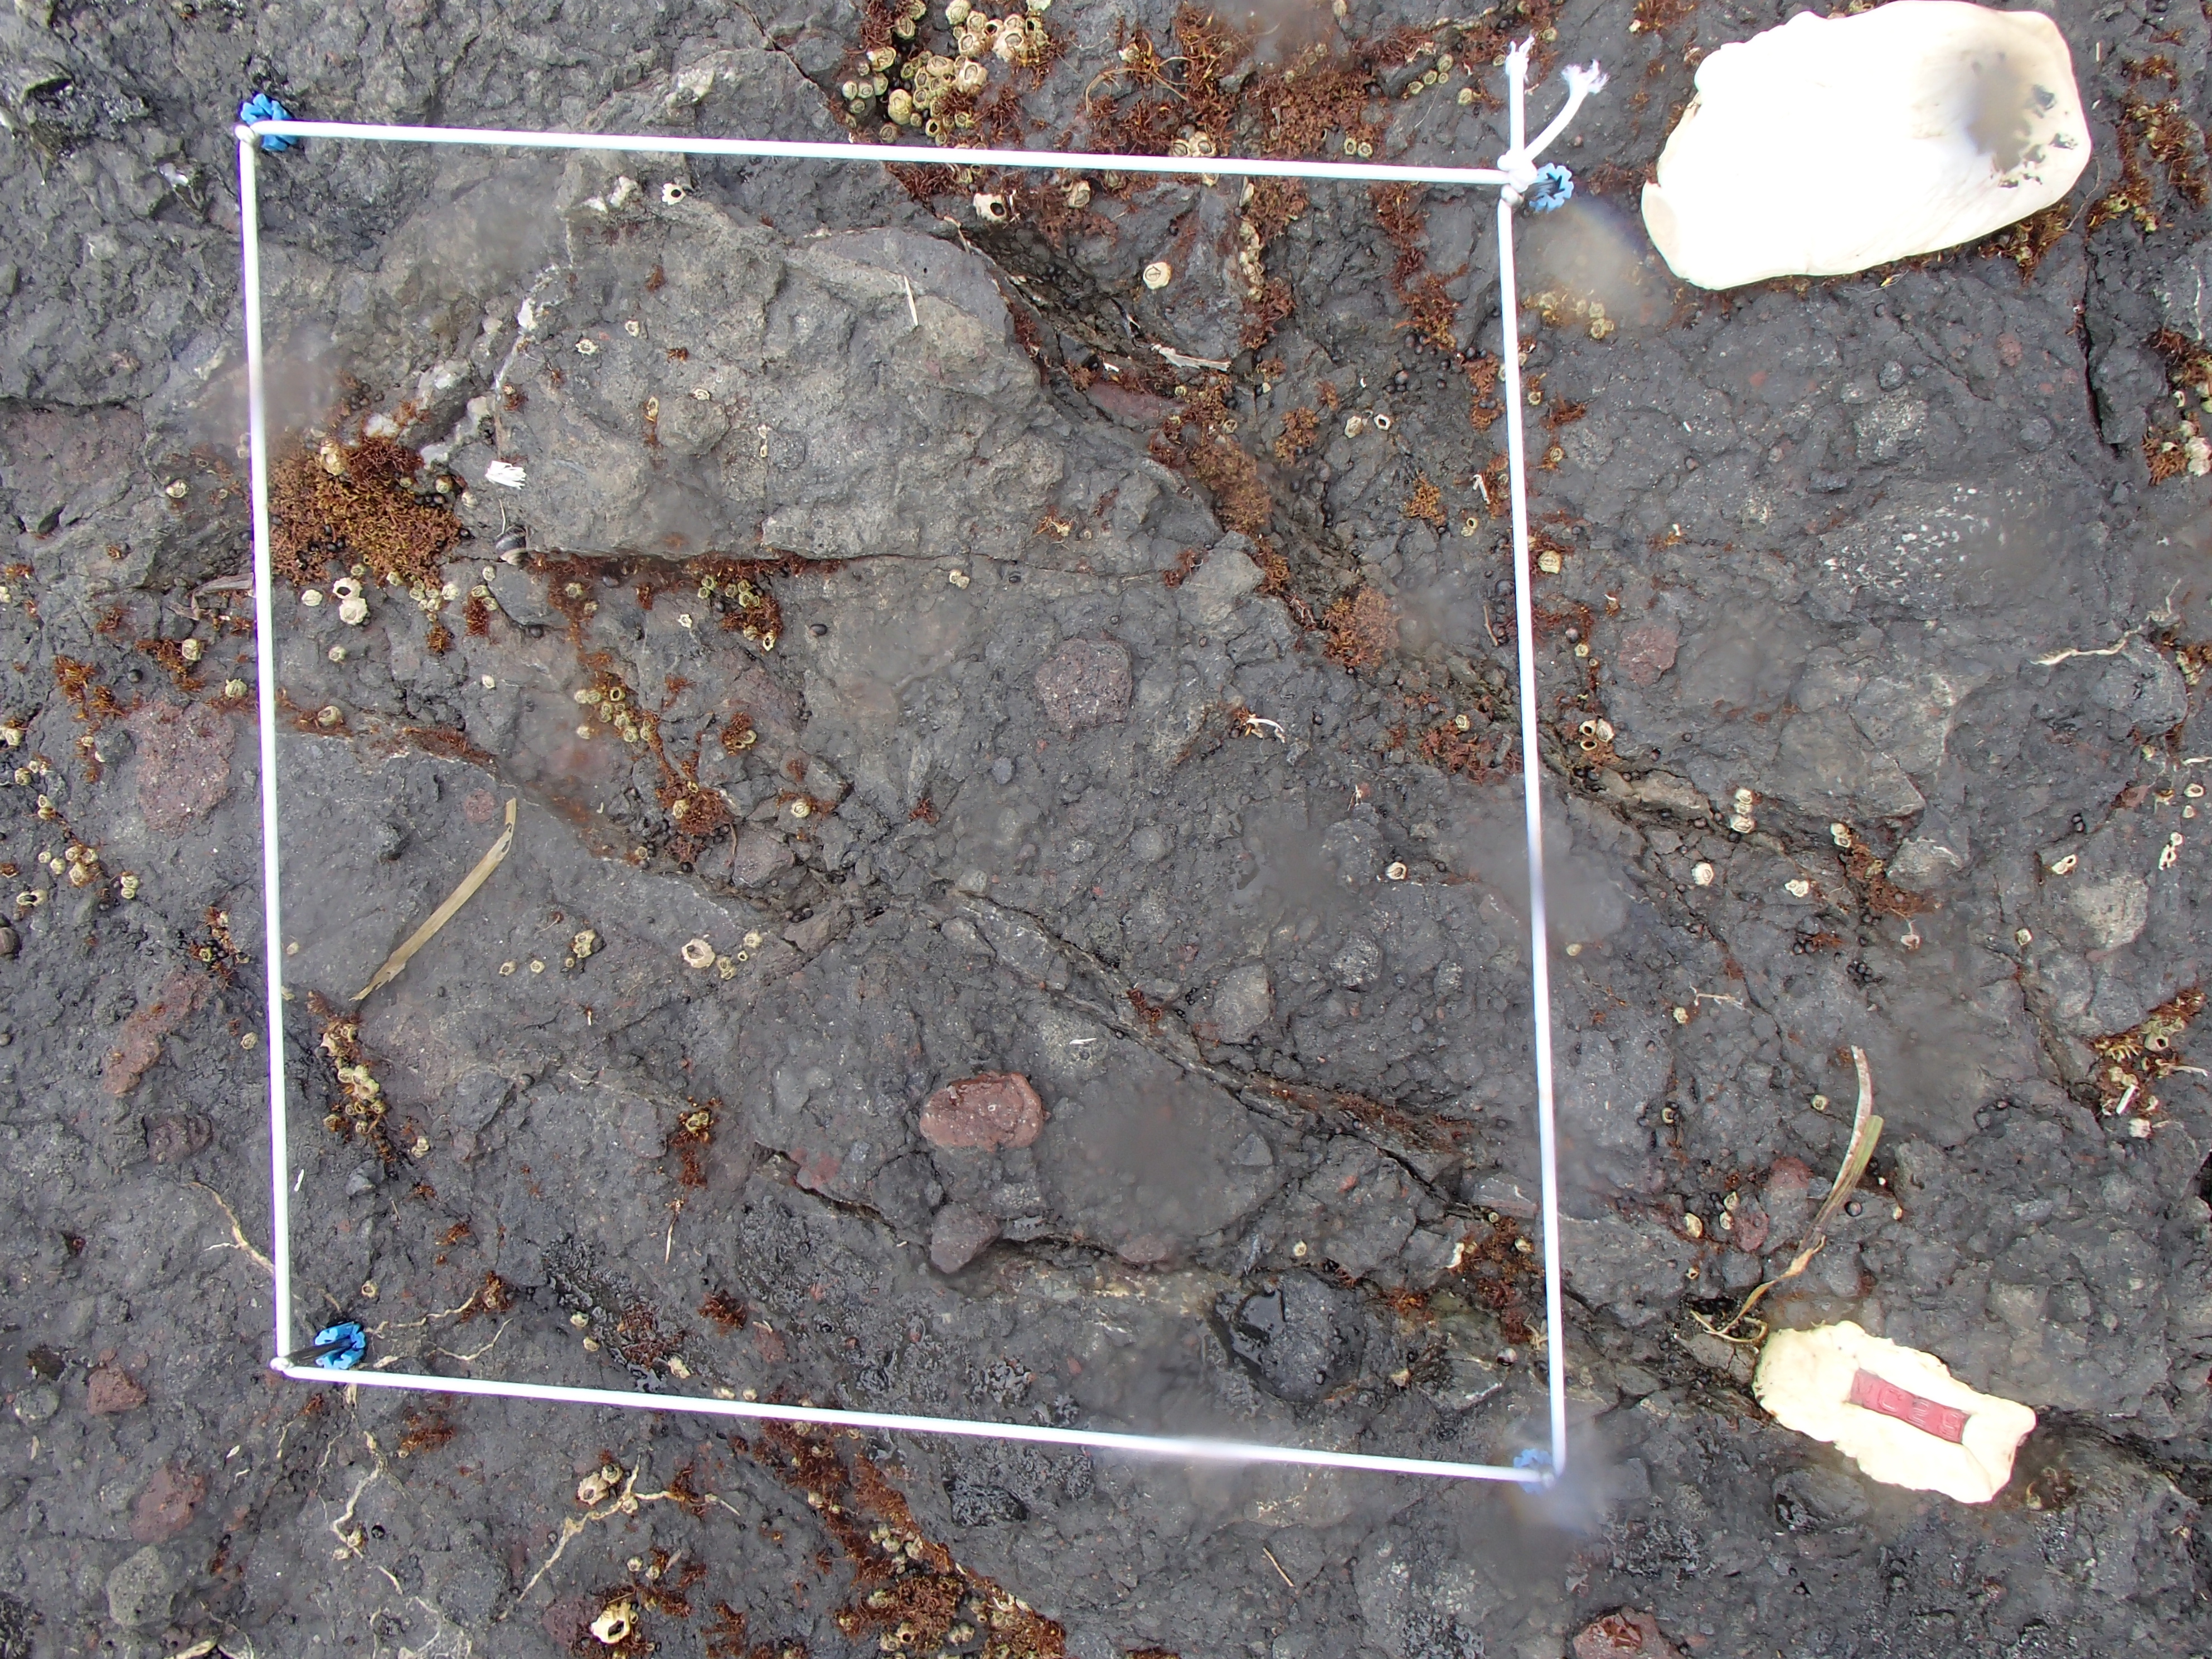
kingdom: Animalia
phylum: Arthropoda
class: Maxillopoda
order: Sessilia
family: Chthamalidae
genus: Chthamalus
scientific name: Chthamalus dalli
